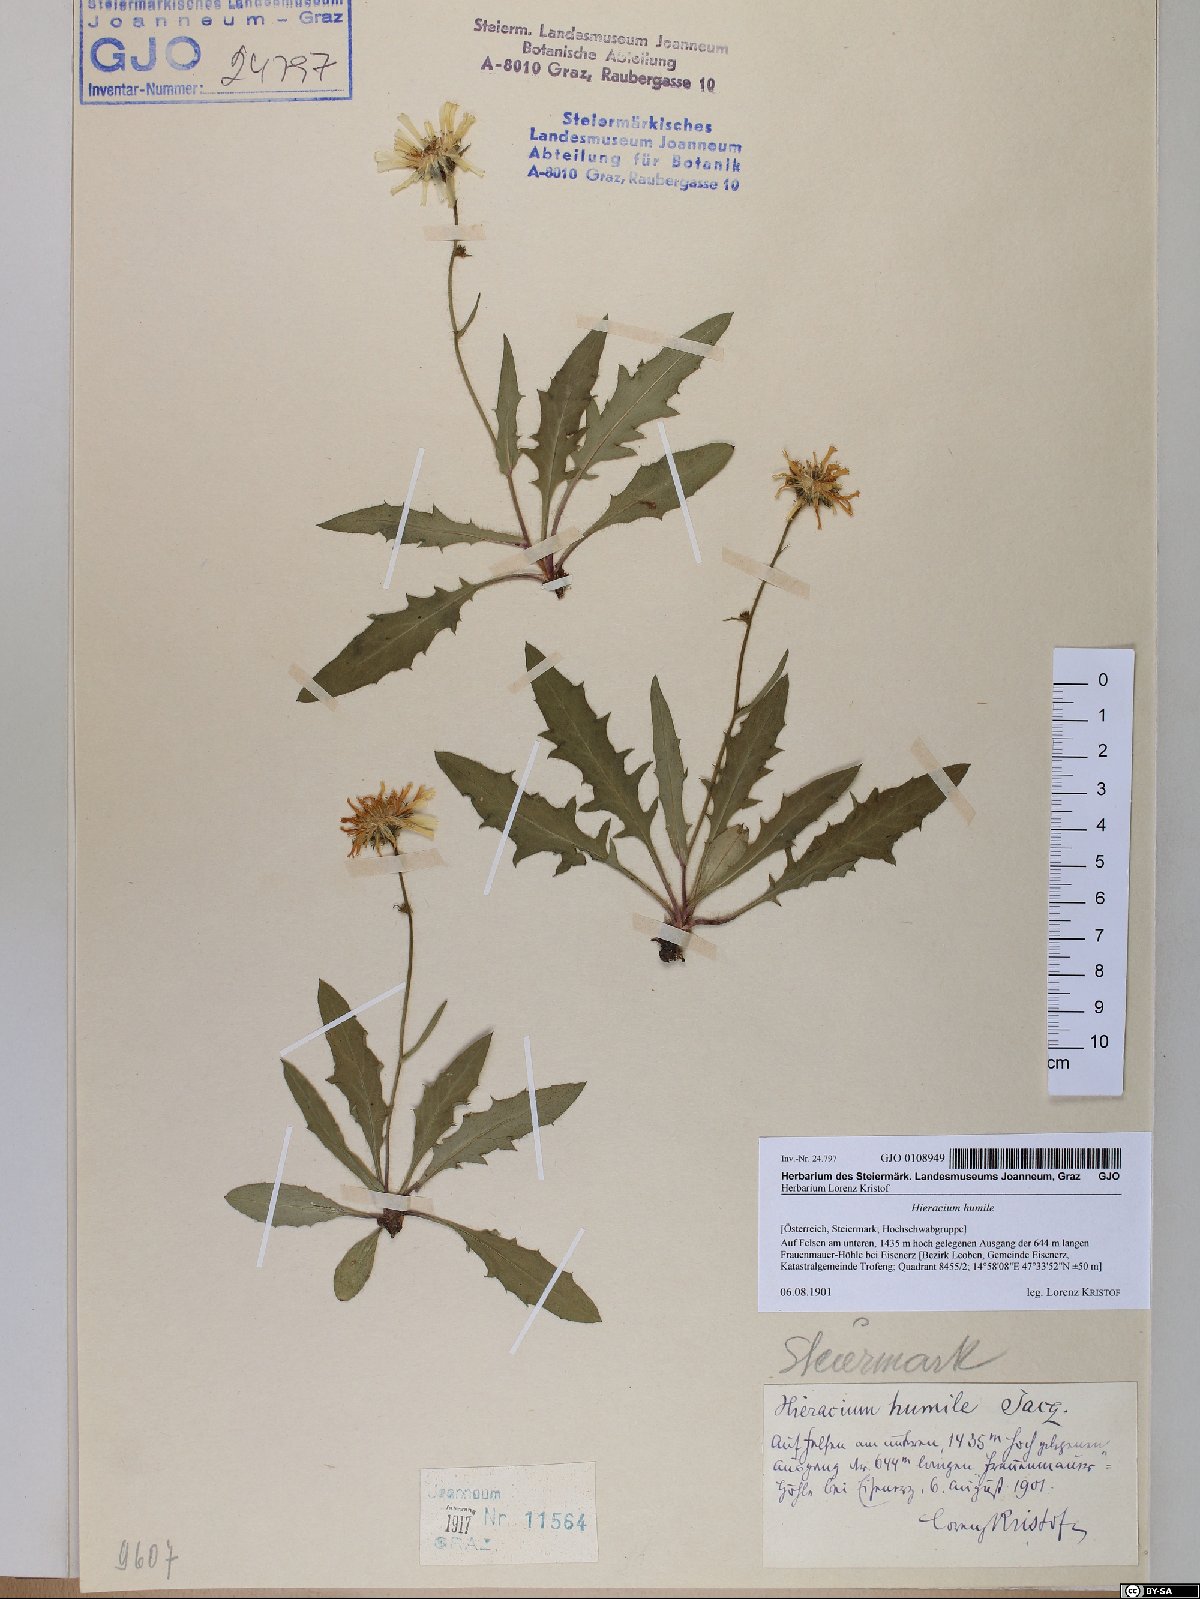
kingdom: Plantae
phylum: Tracheophyta
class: Magnoliopsida
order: Asterales
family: Asteraceae
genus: Hieracium
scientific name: Hieracium humile
